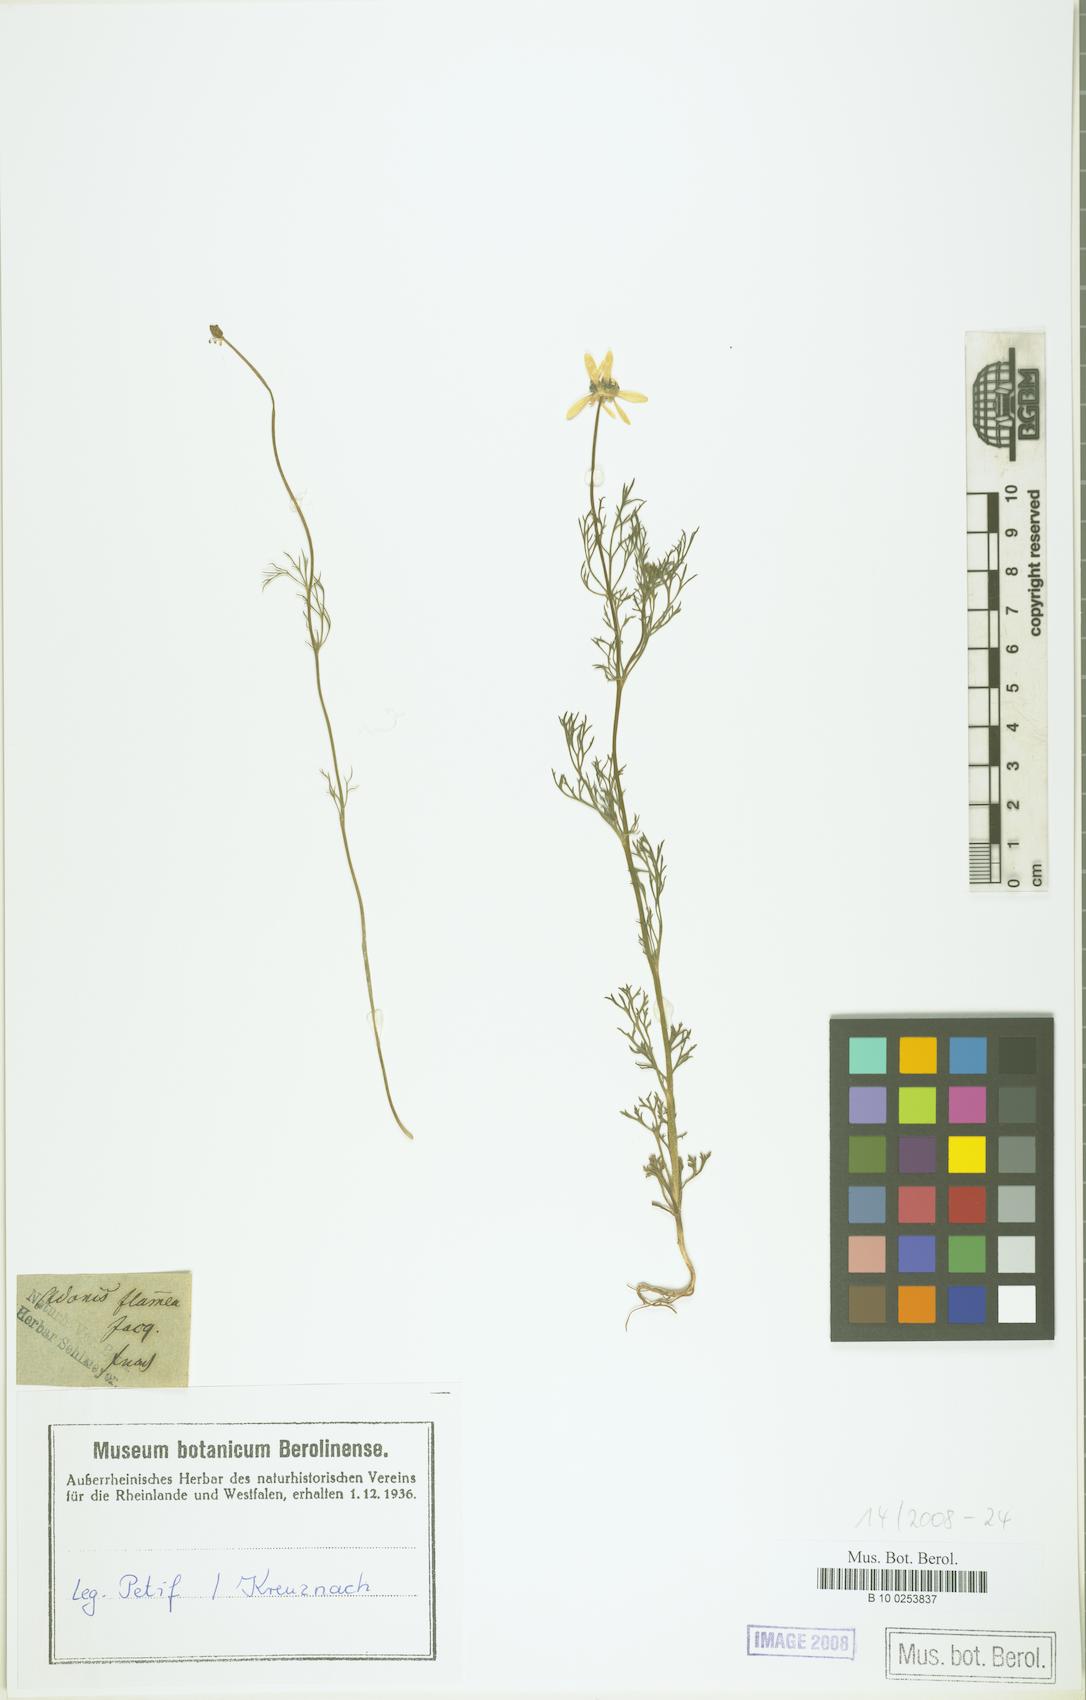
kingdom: Plantae
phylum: Tracheophyta
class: Magnoliopsida
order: Ranunculales
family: Ranunculaceae
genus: Adonis
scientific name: Adonis flammea
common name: Large pheasant's-eye
